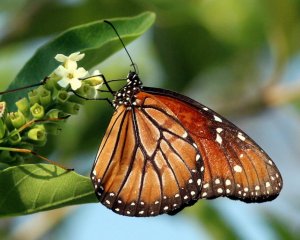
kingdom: Animalia
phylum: Arthropoda
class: Insecta
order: Lepidoptera
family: Nymphalidae
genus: Danaus
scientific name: Danaus eresimus
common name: Soldier
